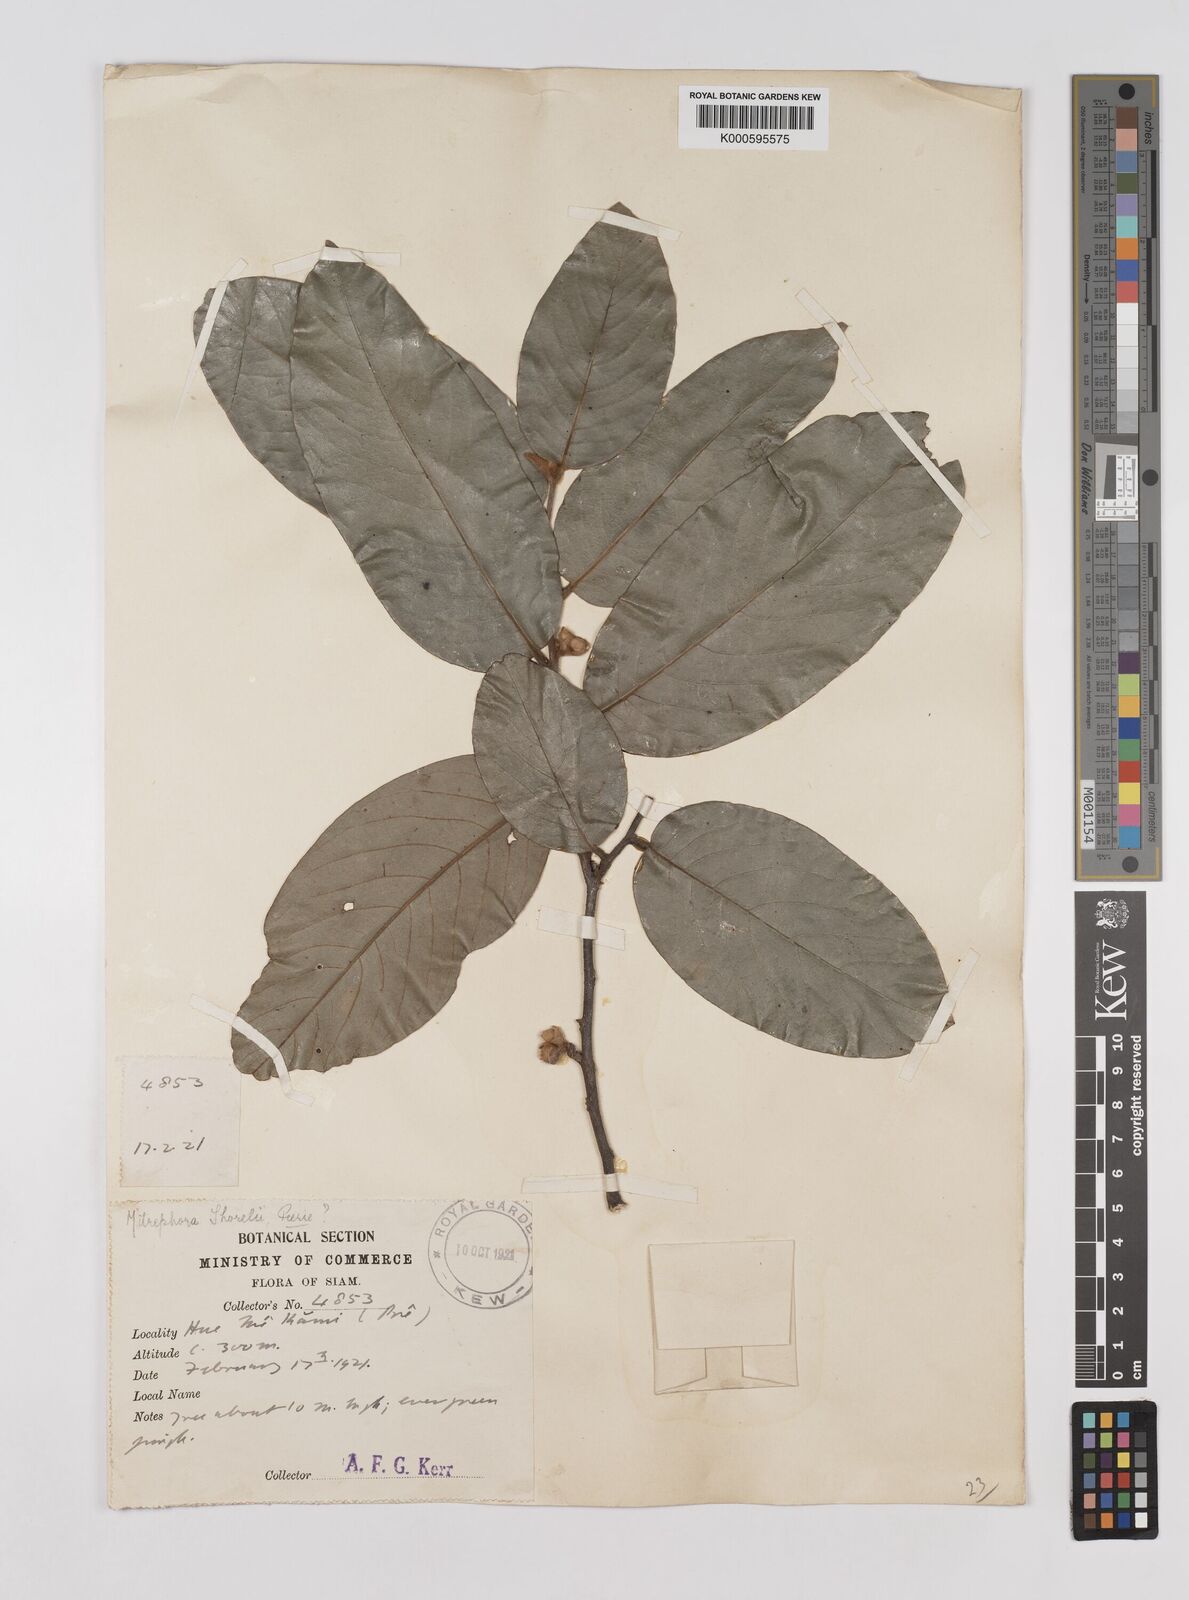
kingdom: Plantae
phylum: Tracheophyta
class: Magnoliopsida
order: Magnoliales
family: Annonaceae
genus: Mitrephora
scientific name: Mitrephora tomentosa
